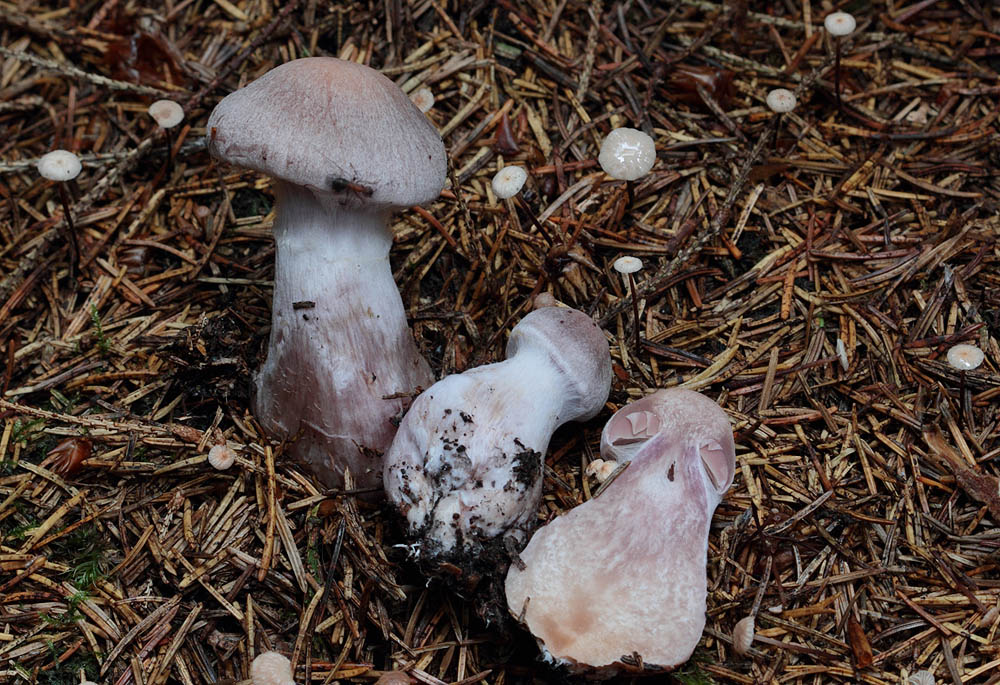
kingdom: Fungi
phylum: Basidiomycota
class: Agaricomycetes
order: Agaricales
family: Cortinariaceae
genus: Cortinarius
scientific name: Cortinarius malachius
